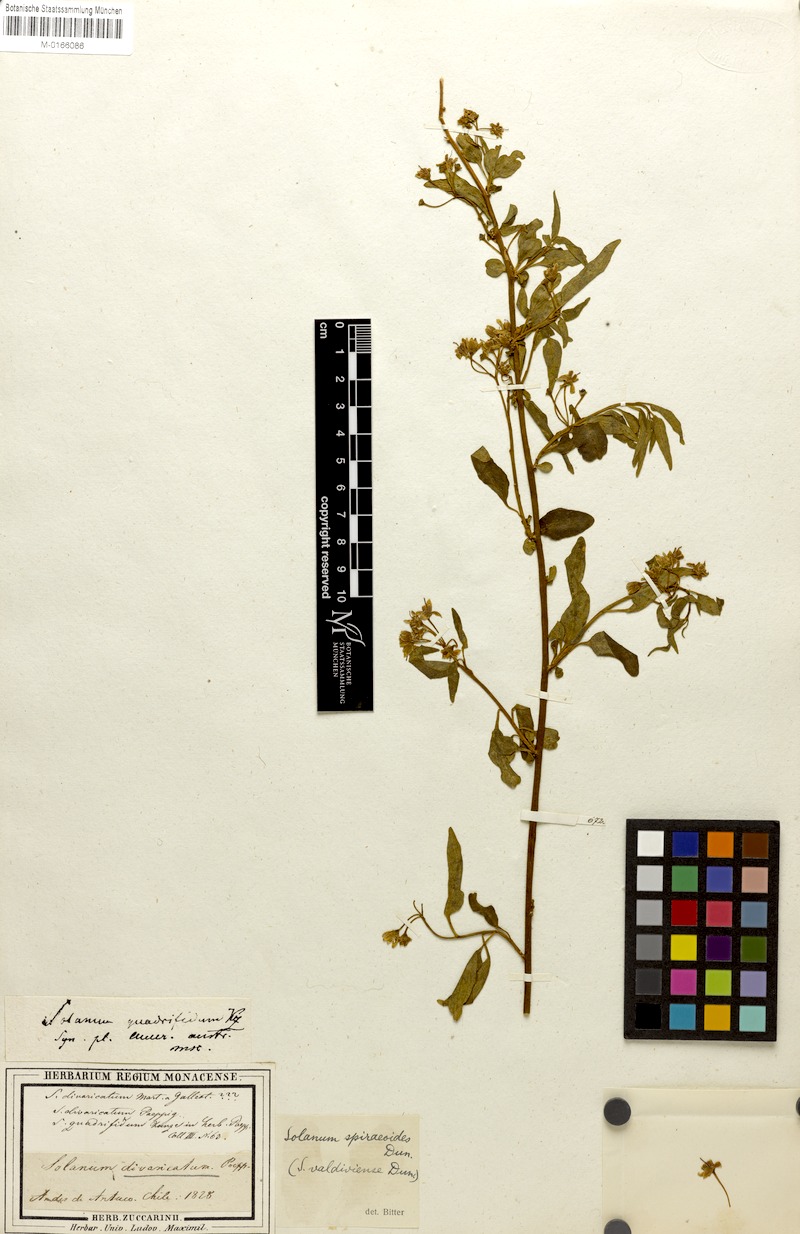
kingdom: Plantae
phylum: Tracheophyta
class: Magnoliopsida
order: Solanales
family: Solanaceae
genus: Solanum
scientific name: Solanum valdiviense
